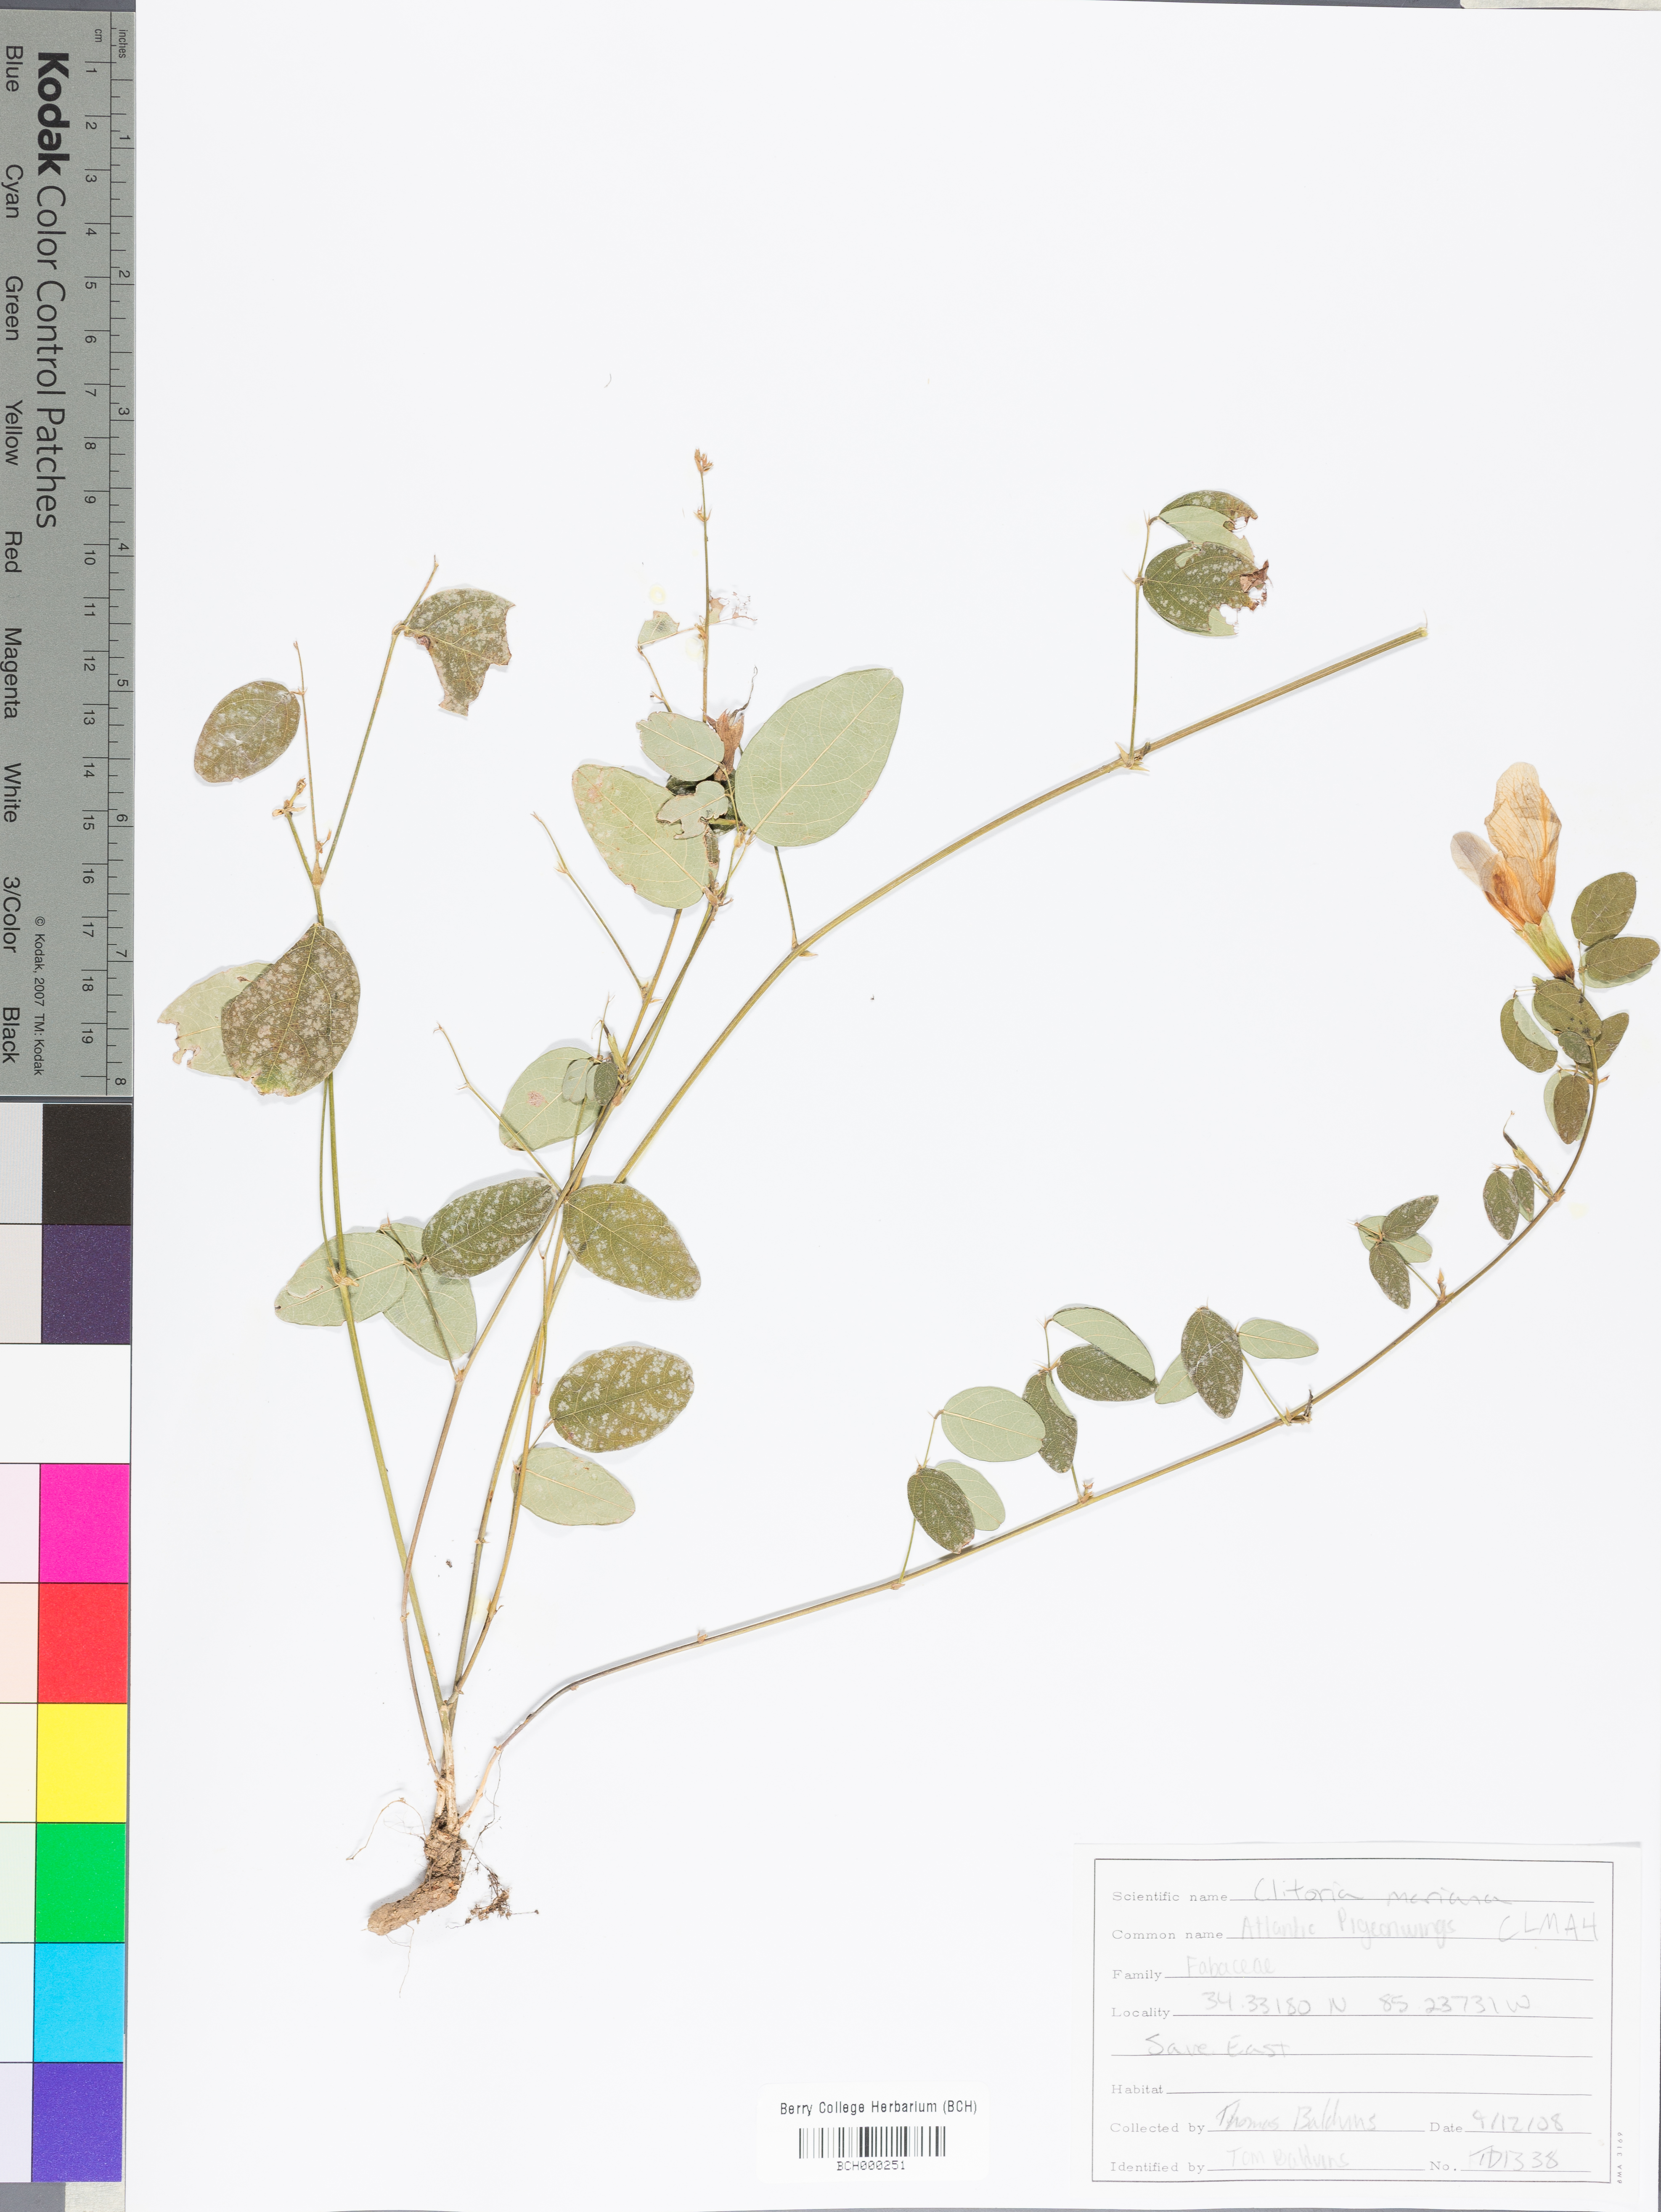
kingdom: Plantae
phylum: Tracheophyta
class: Magnoliopsida
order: Fabales
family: Fabaceae
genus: Clitoria
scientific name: Clitoria mariana
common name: Butterfly-pea
